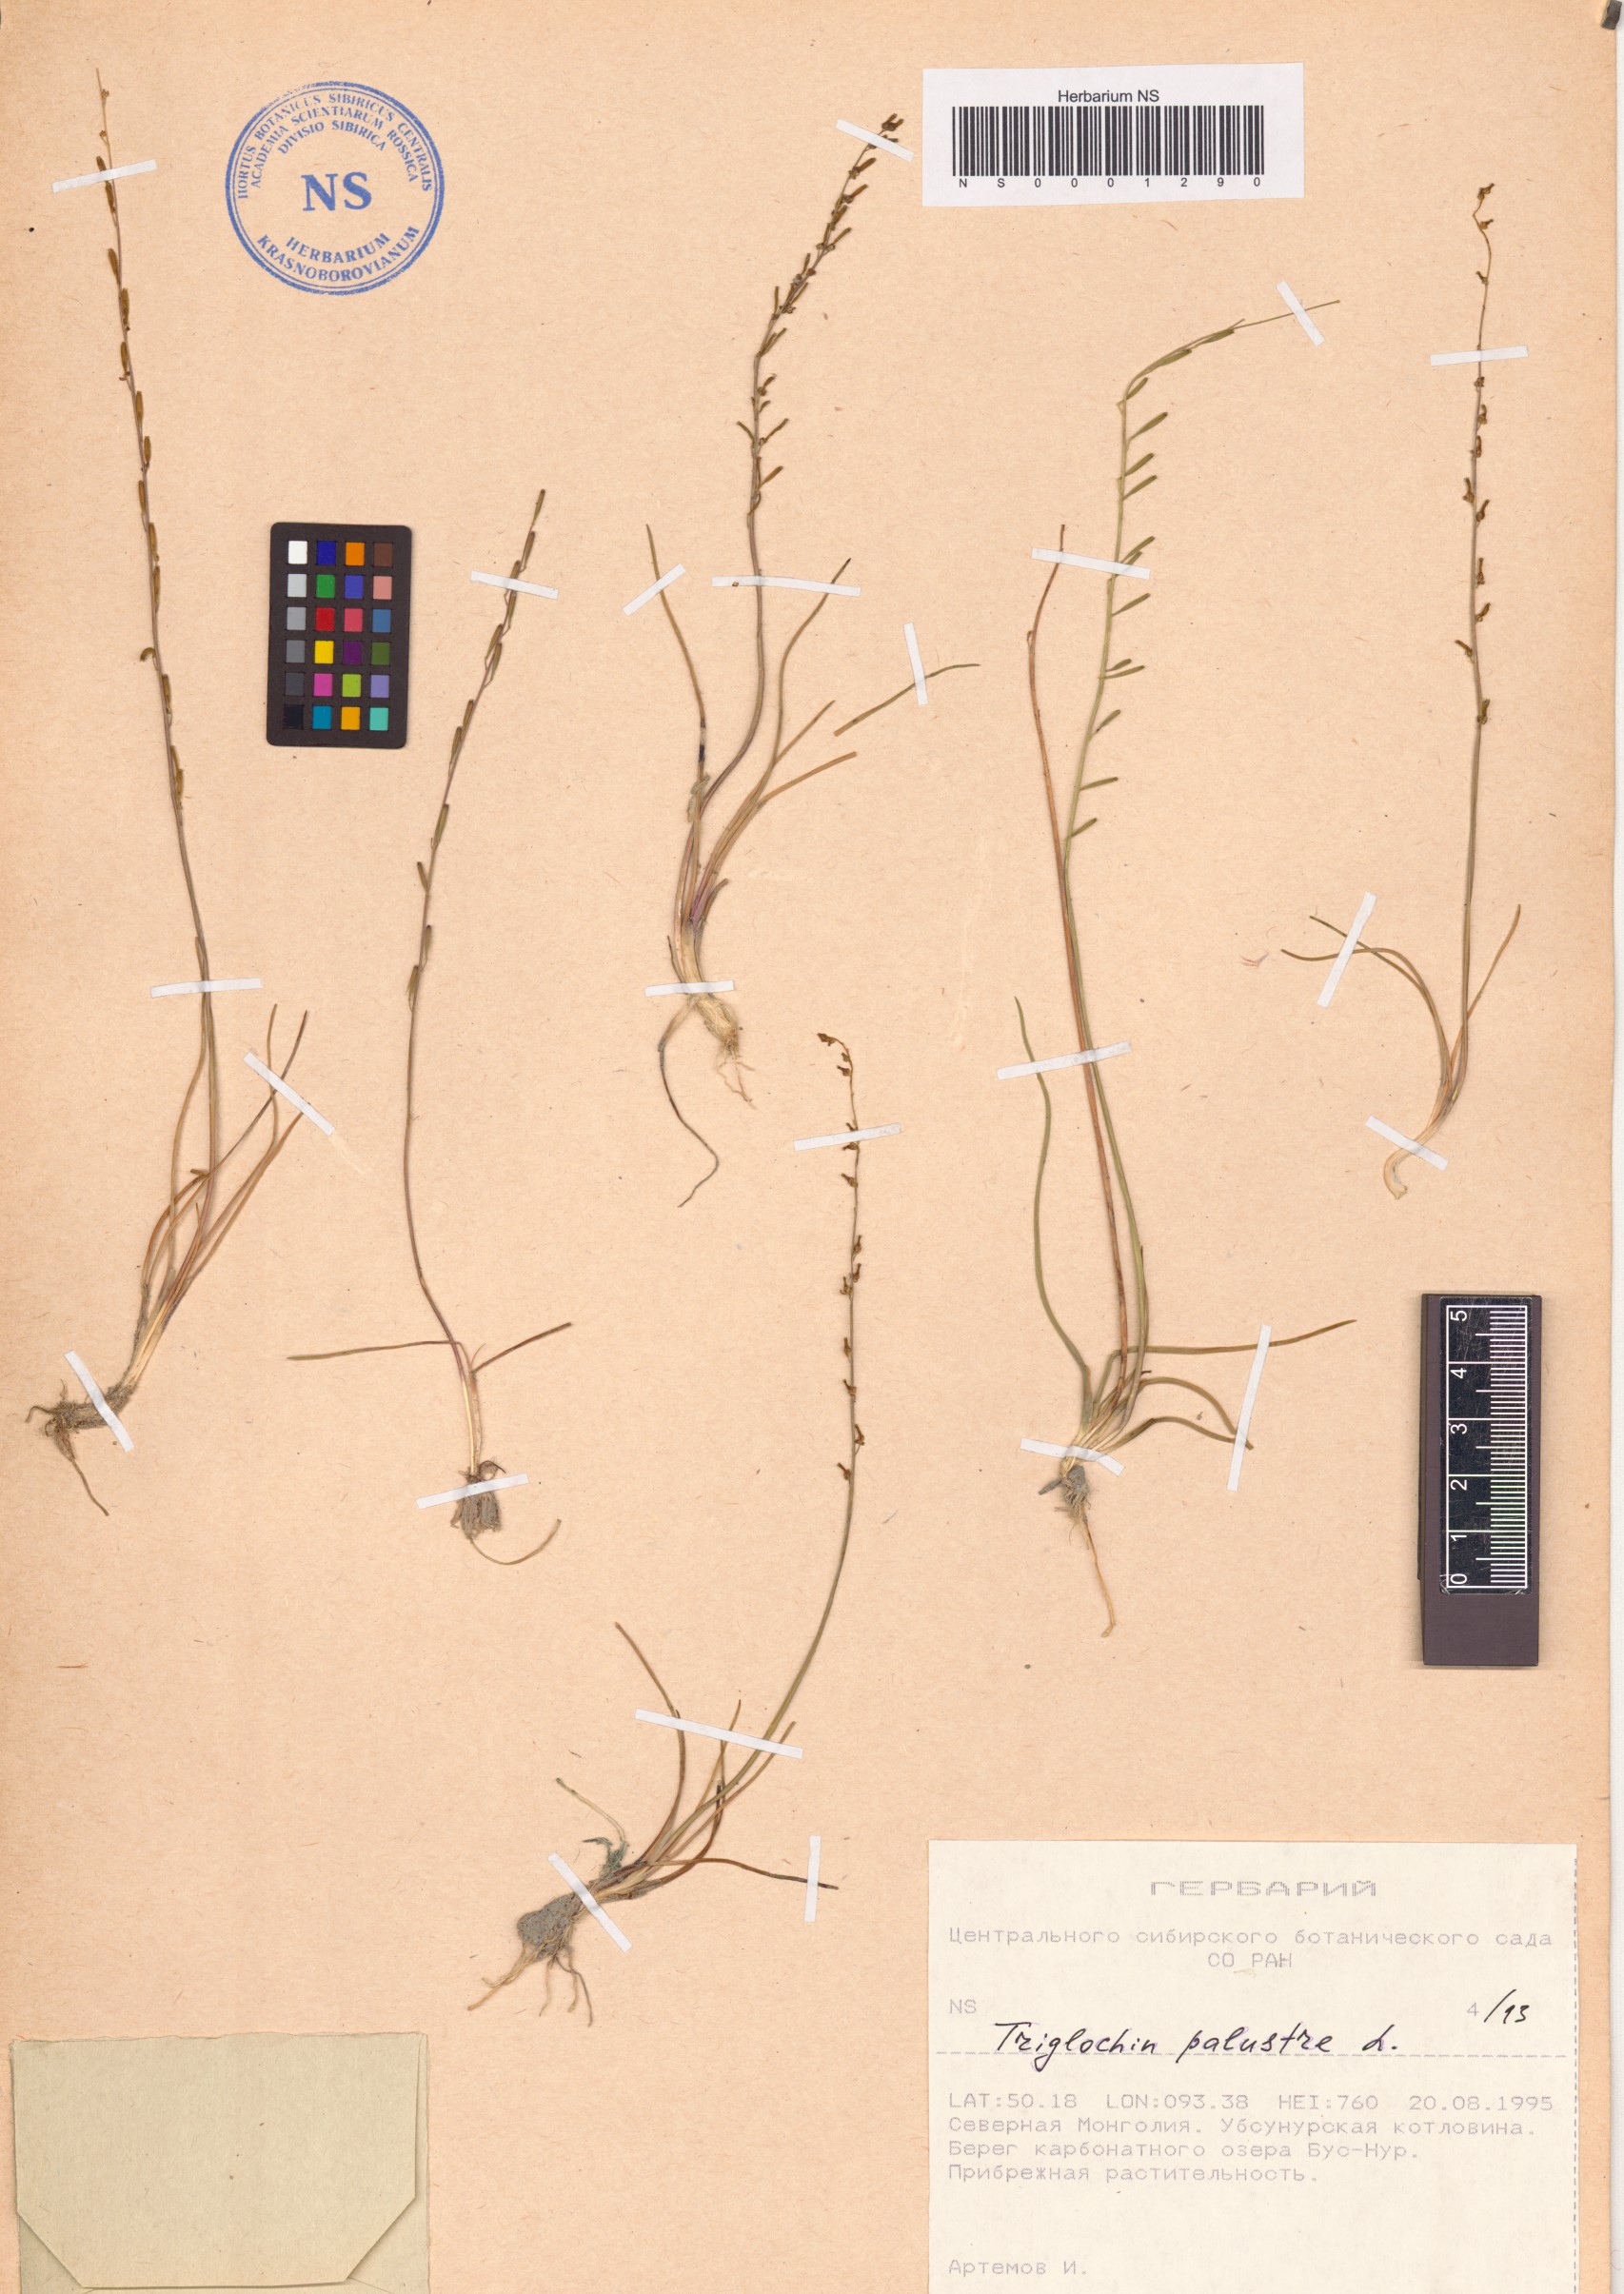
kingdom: Plantae
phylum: Tracheophyta
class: Liliopsida
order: Alismatales
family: Juncaginaceae
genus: Triglochin
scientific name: Triglochin palustris
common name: Marsh arrowgrass
